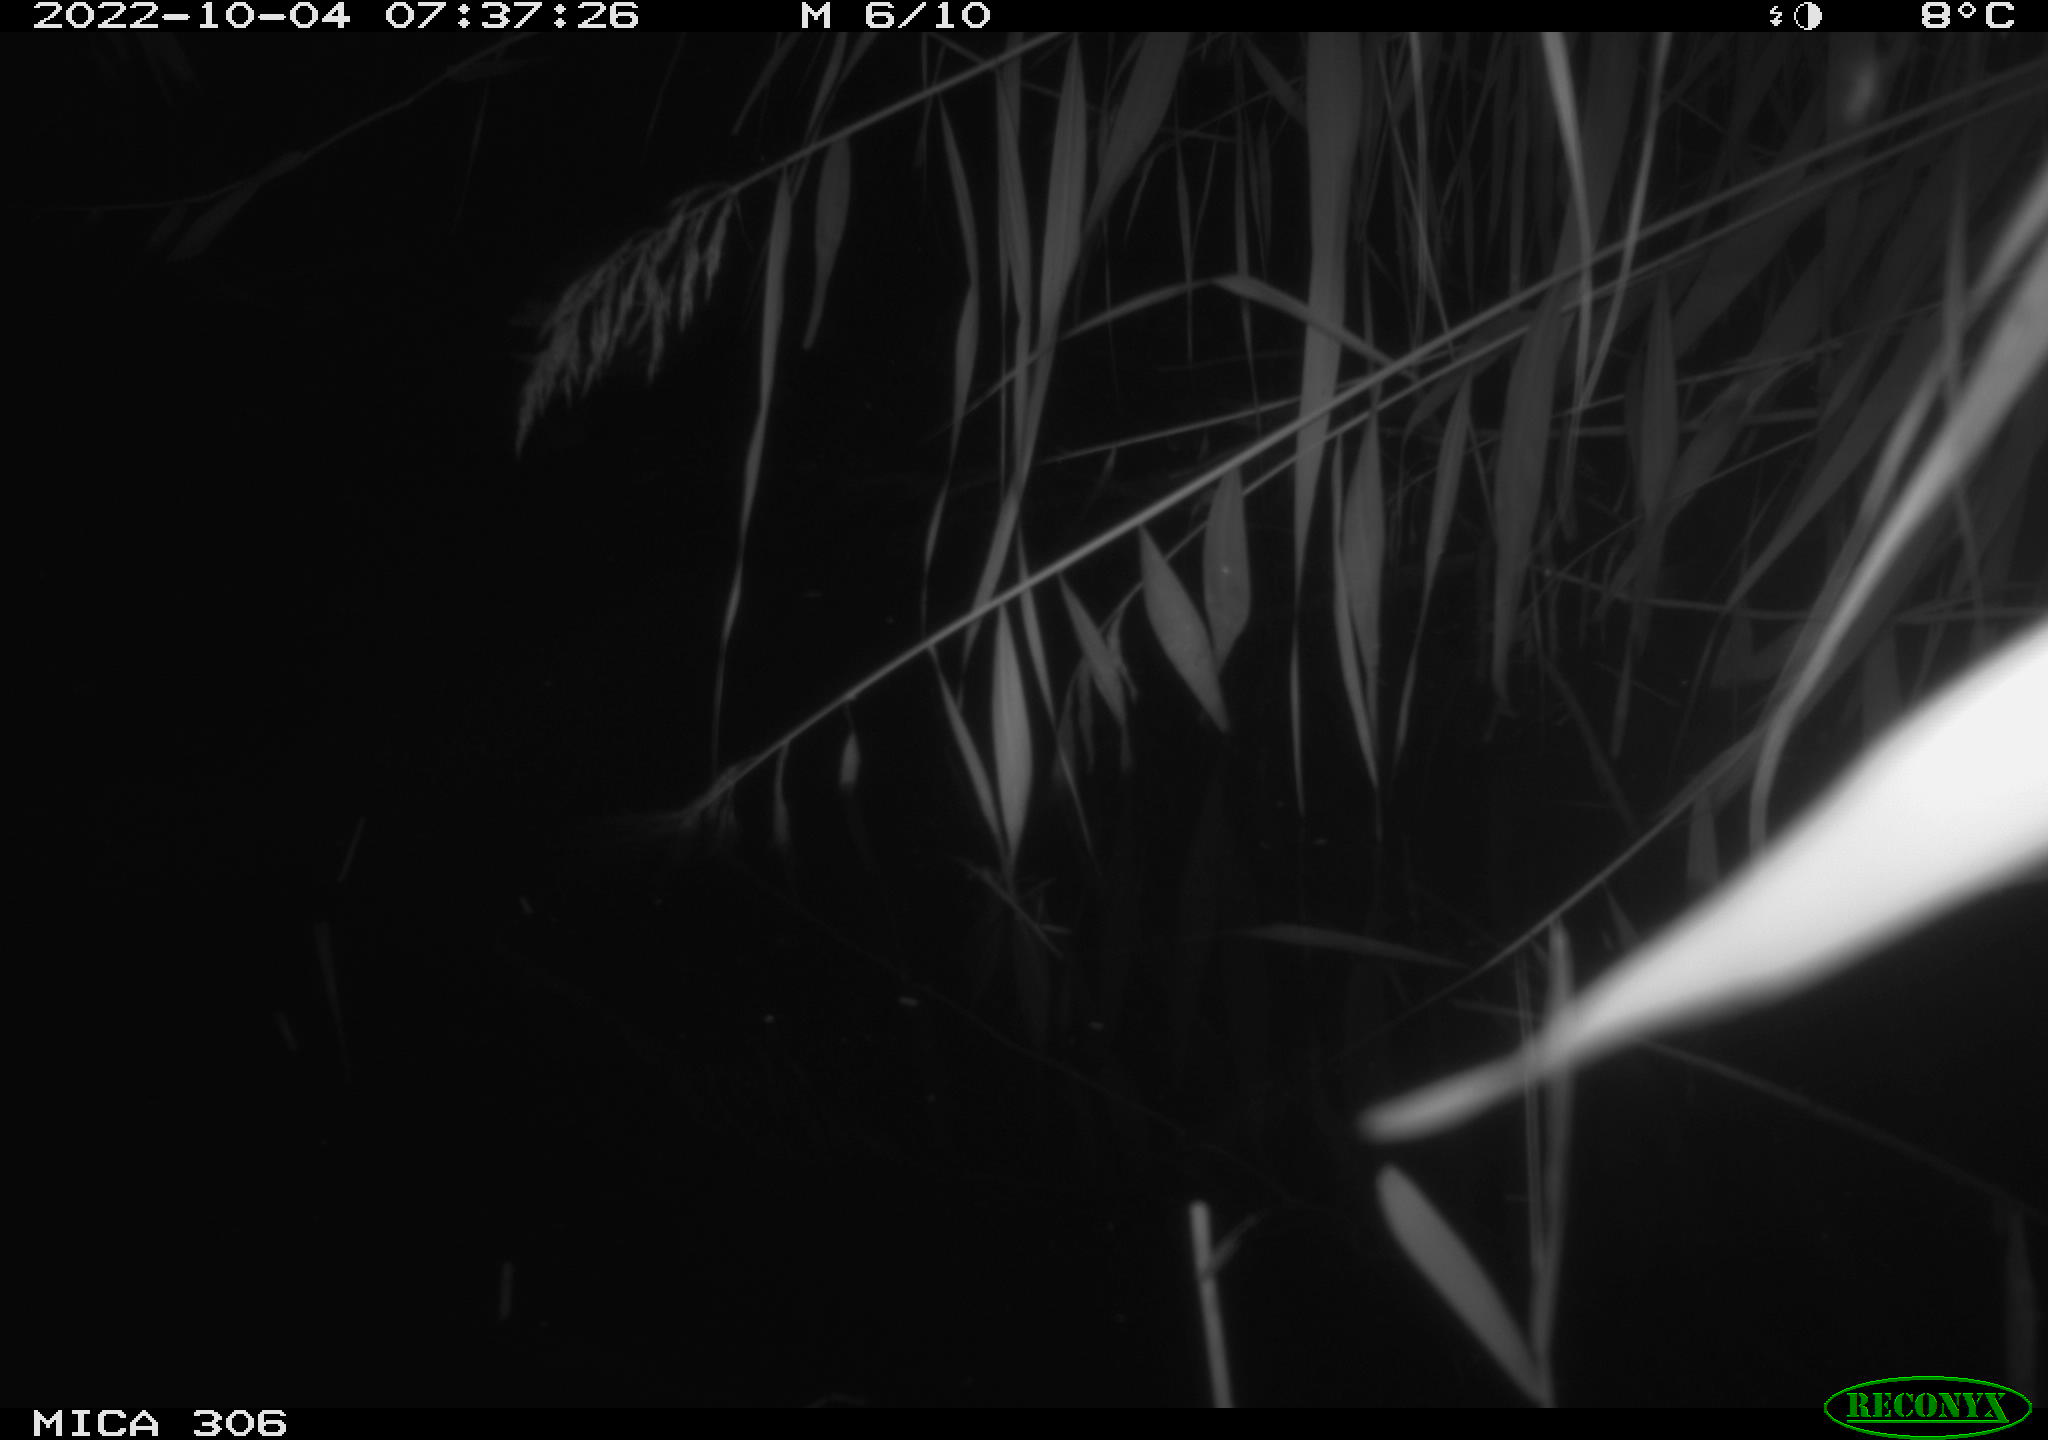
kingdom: Animalia
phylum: Chordata
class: Aves
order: Gruiformes
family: Rallidae
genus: Gallinula
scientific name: Gallinula chloropus
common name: Common moorhen
